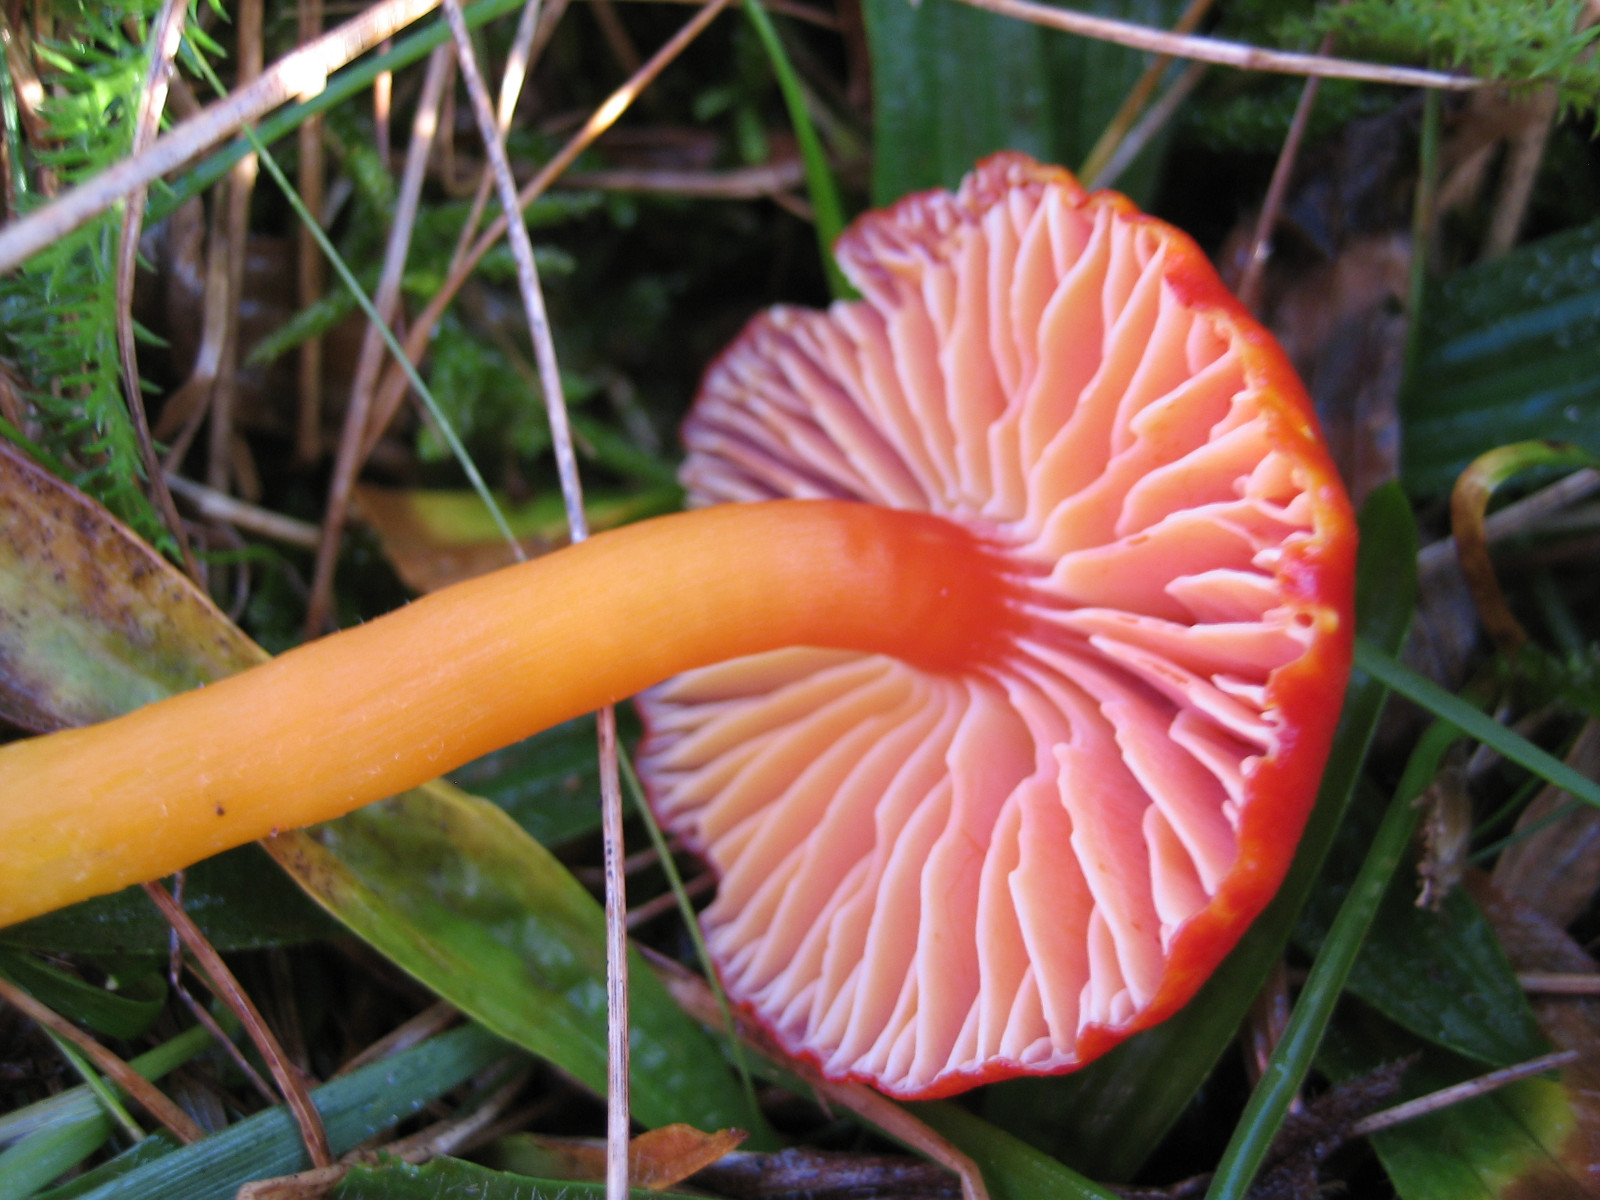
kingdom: Fungi
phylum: Basidiomycota
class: Agaricomycetes
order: Agaricales
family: Hygrophoraceae
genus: Hygrocybe
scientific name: Hygrocybe miniata
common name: mønje-vokshat
